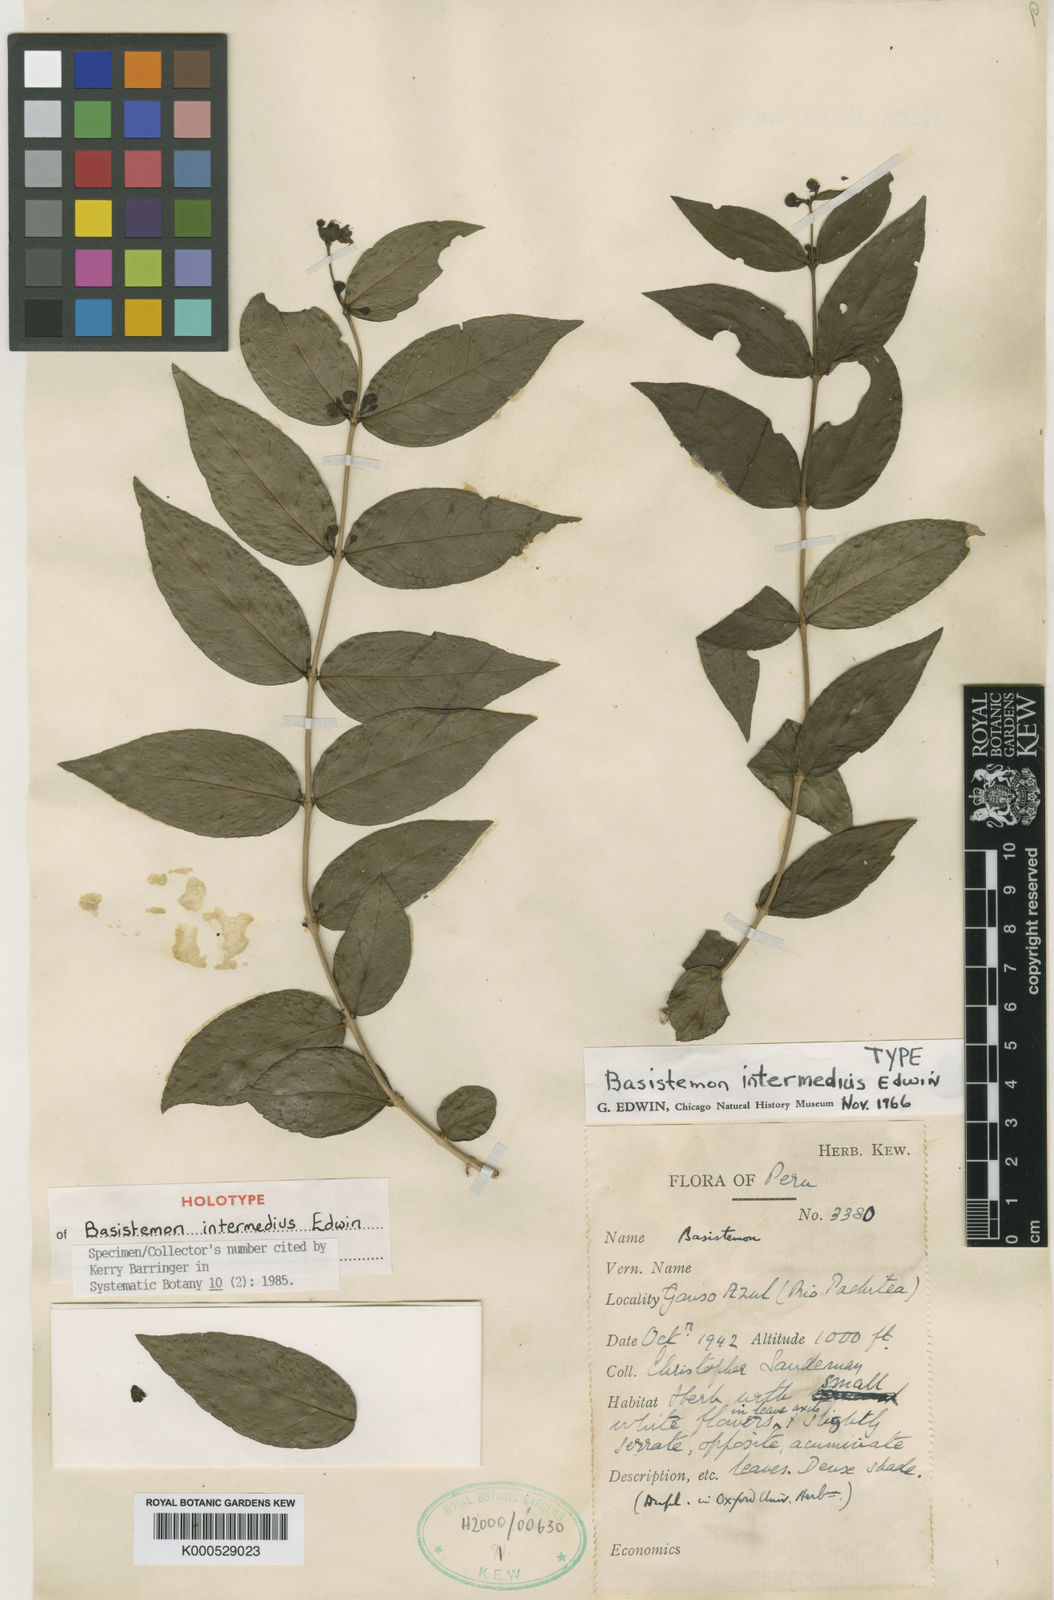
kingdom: Plantae
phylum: Tracheophyta
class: Magnoliopsida
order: Lamiales
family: Plantaginaceae
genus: Basistemon
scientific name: Basistemon intermedius
